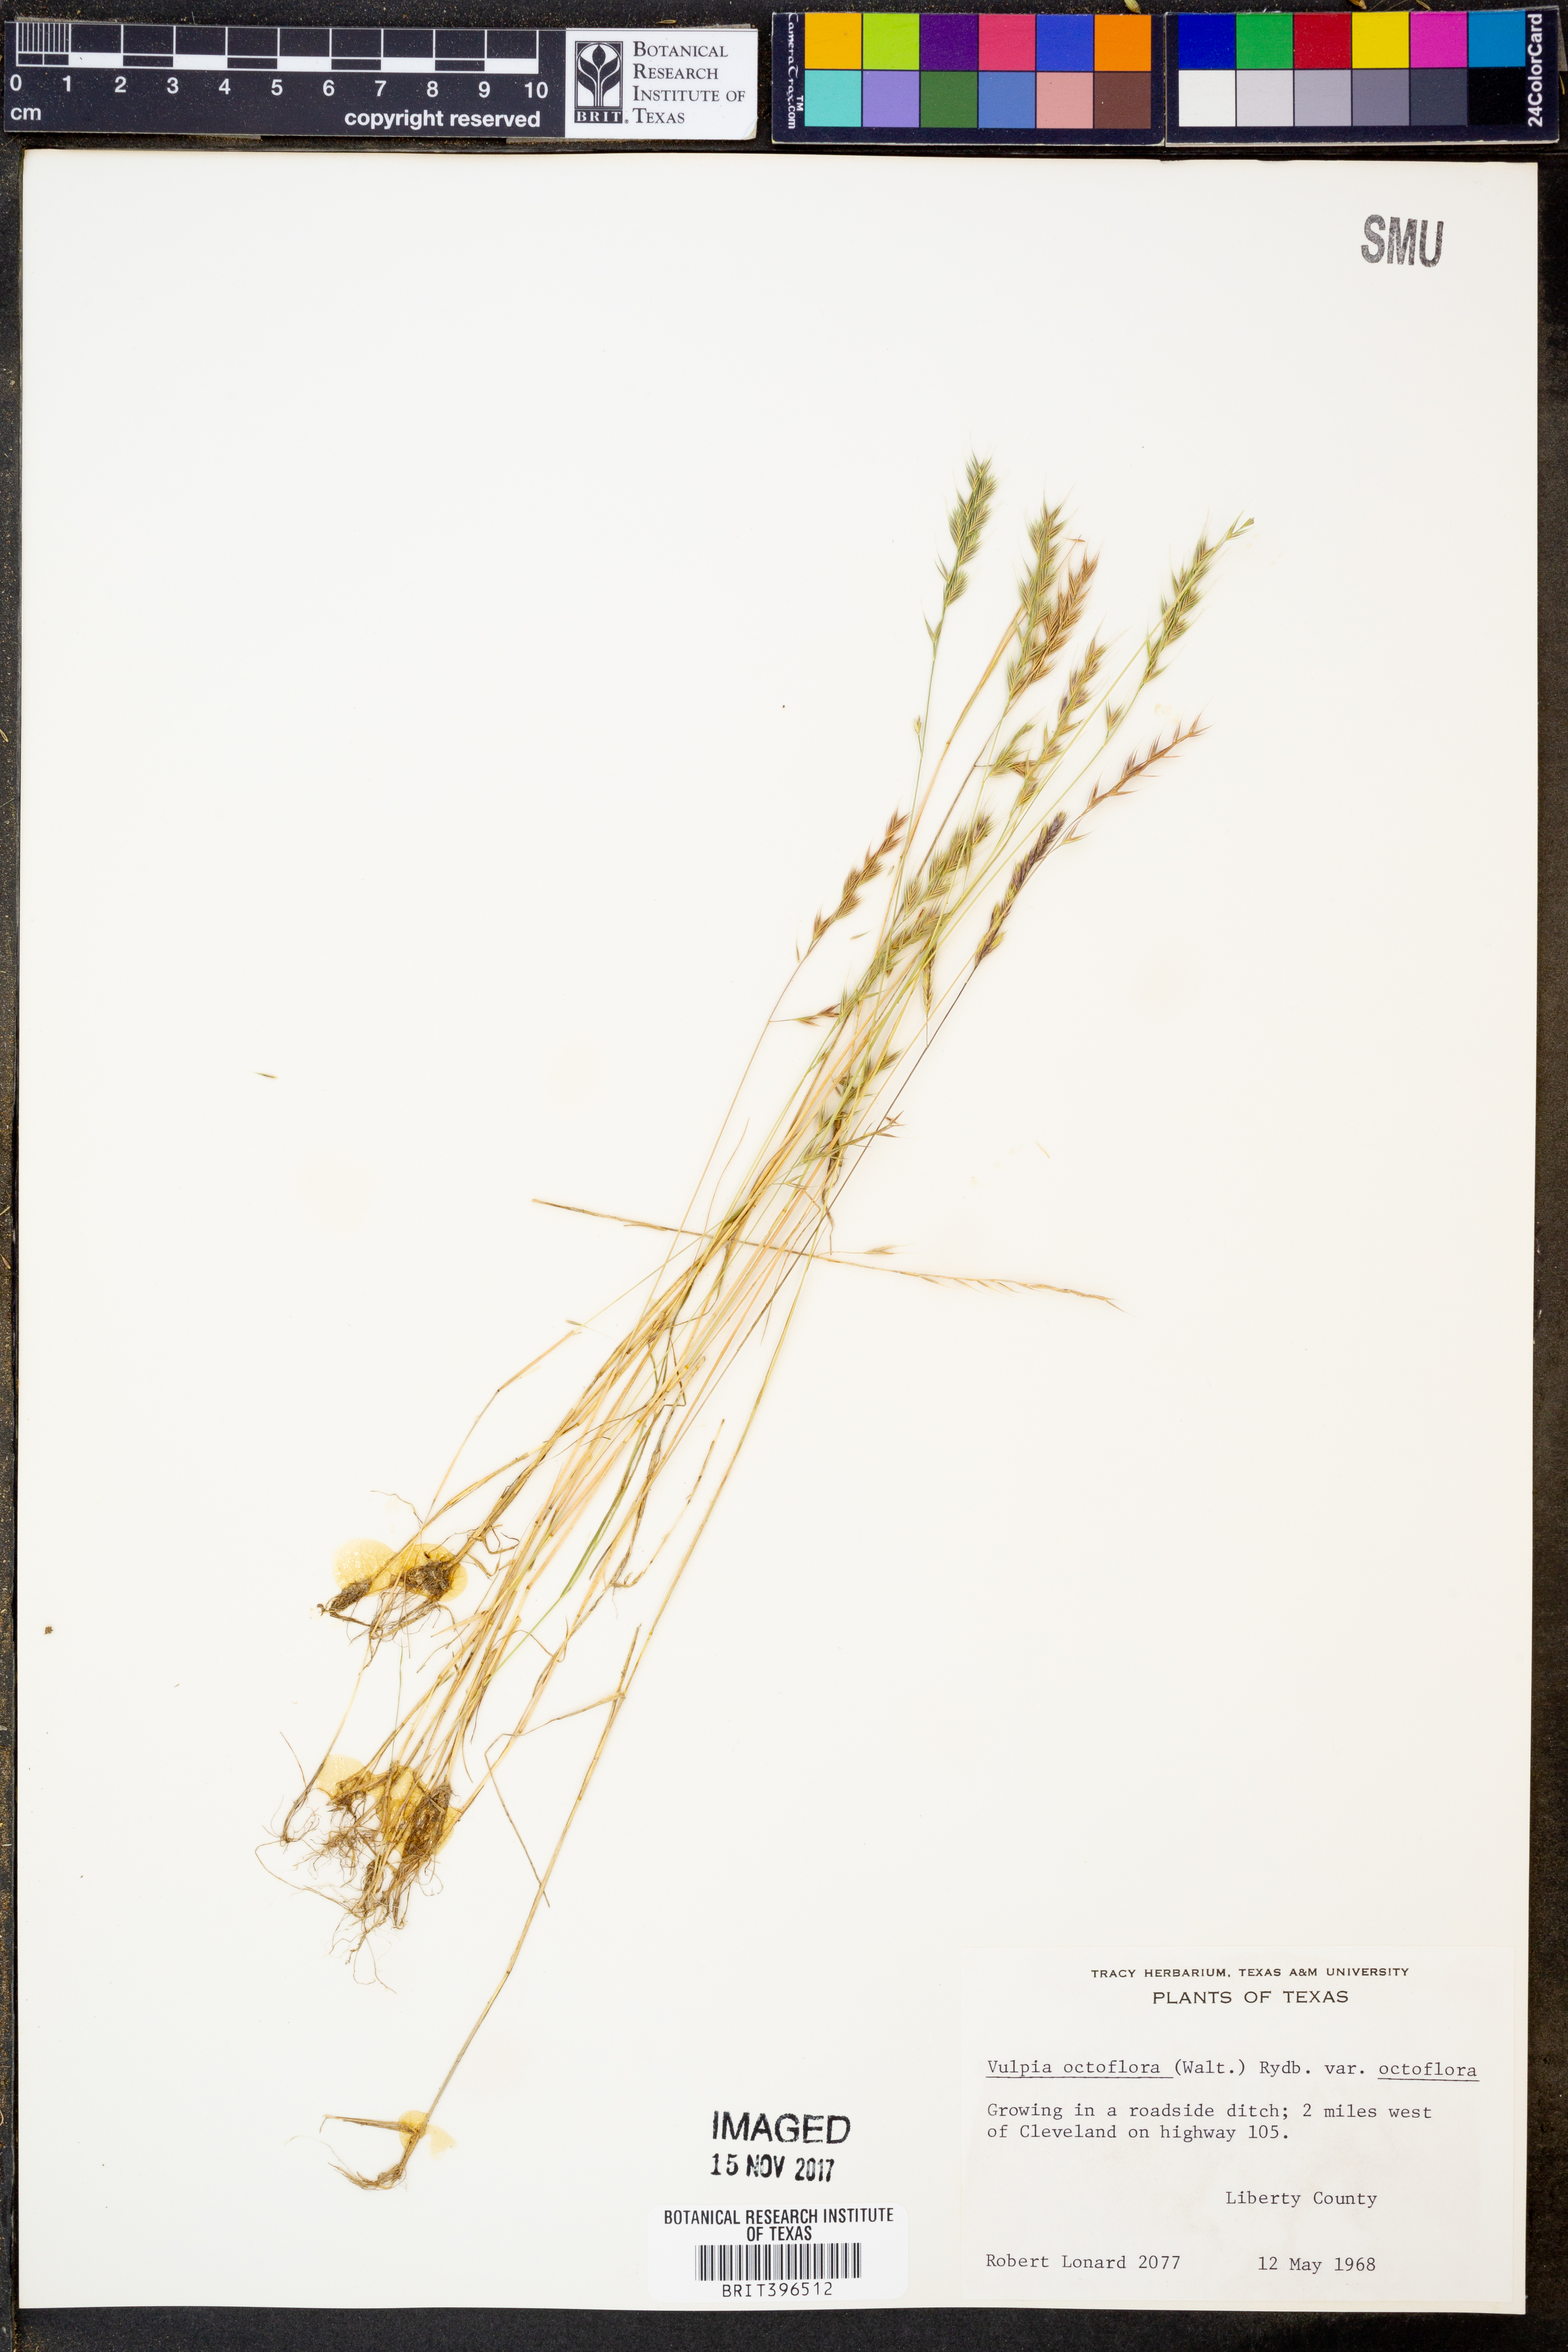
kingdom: Plantae
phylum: Tracheophyta
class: Liliopsida
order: Poales
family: Poaceae
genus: Festuca
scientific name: Festuca octoflora
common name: Sixweeks grass
